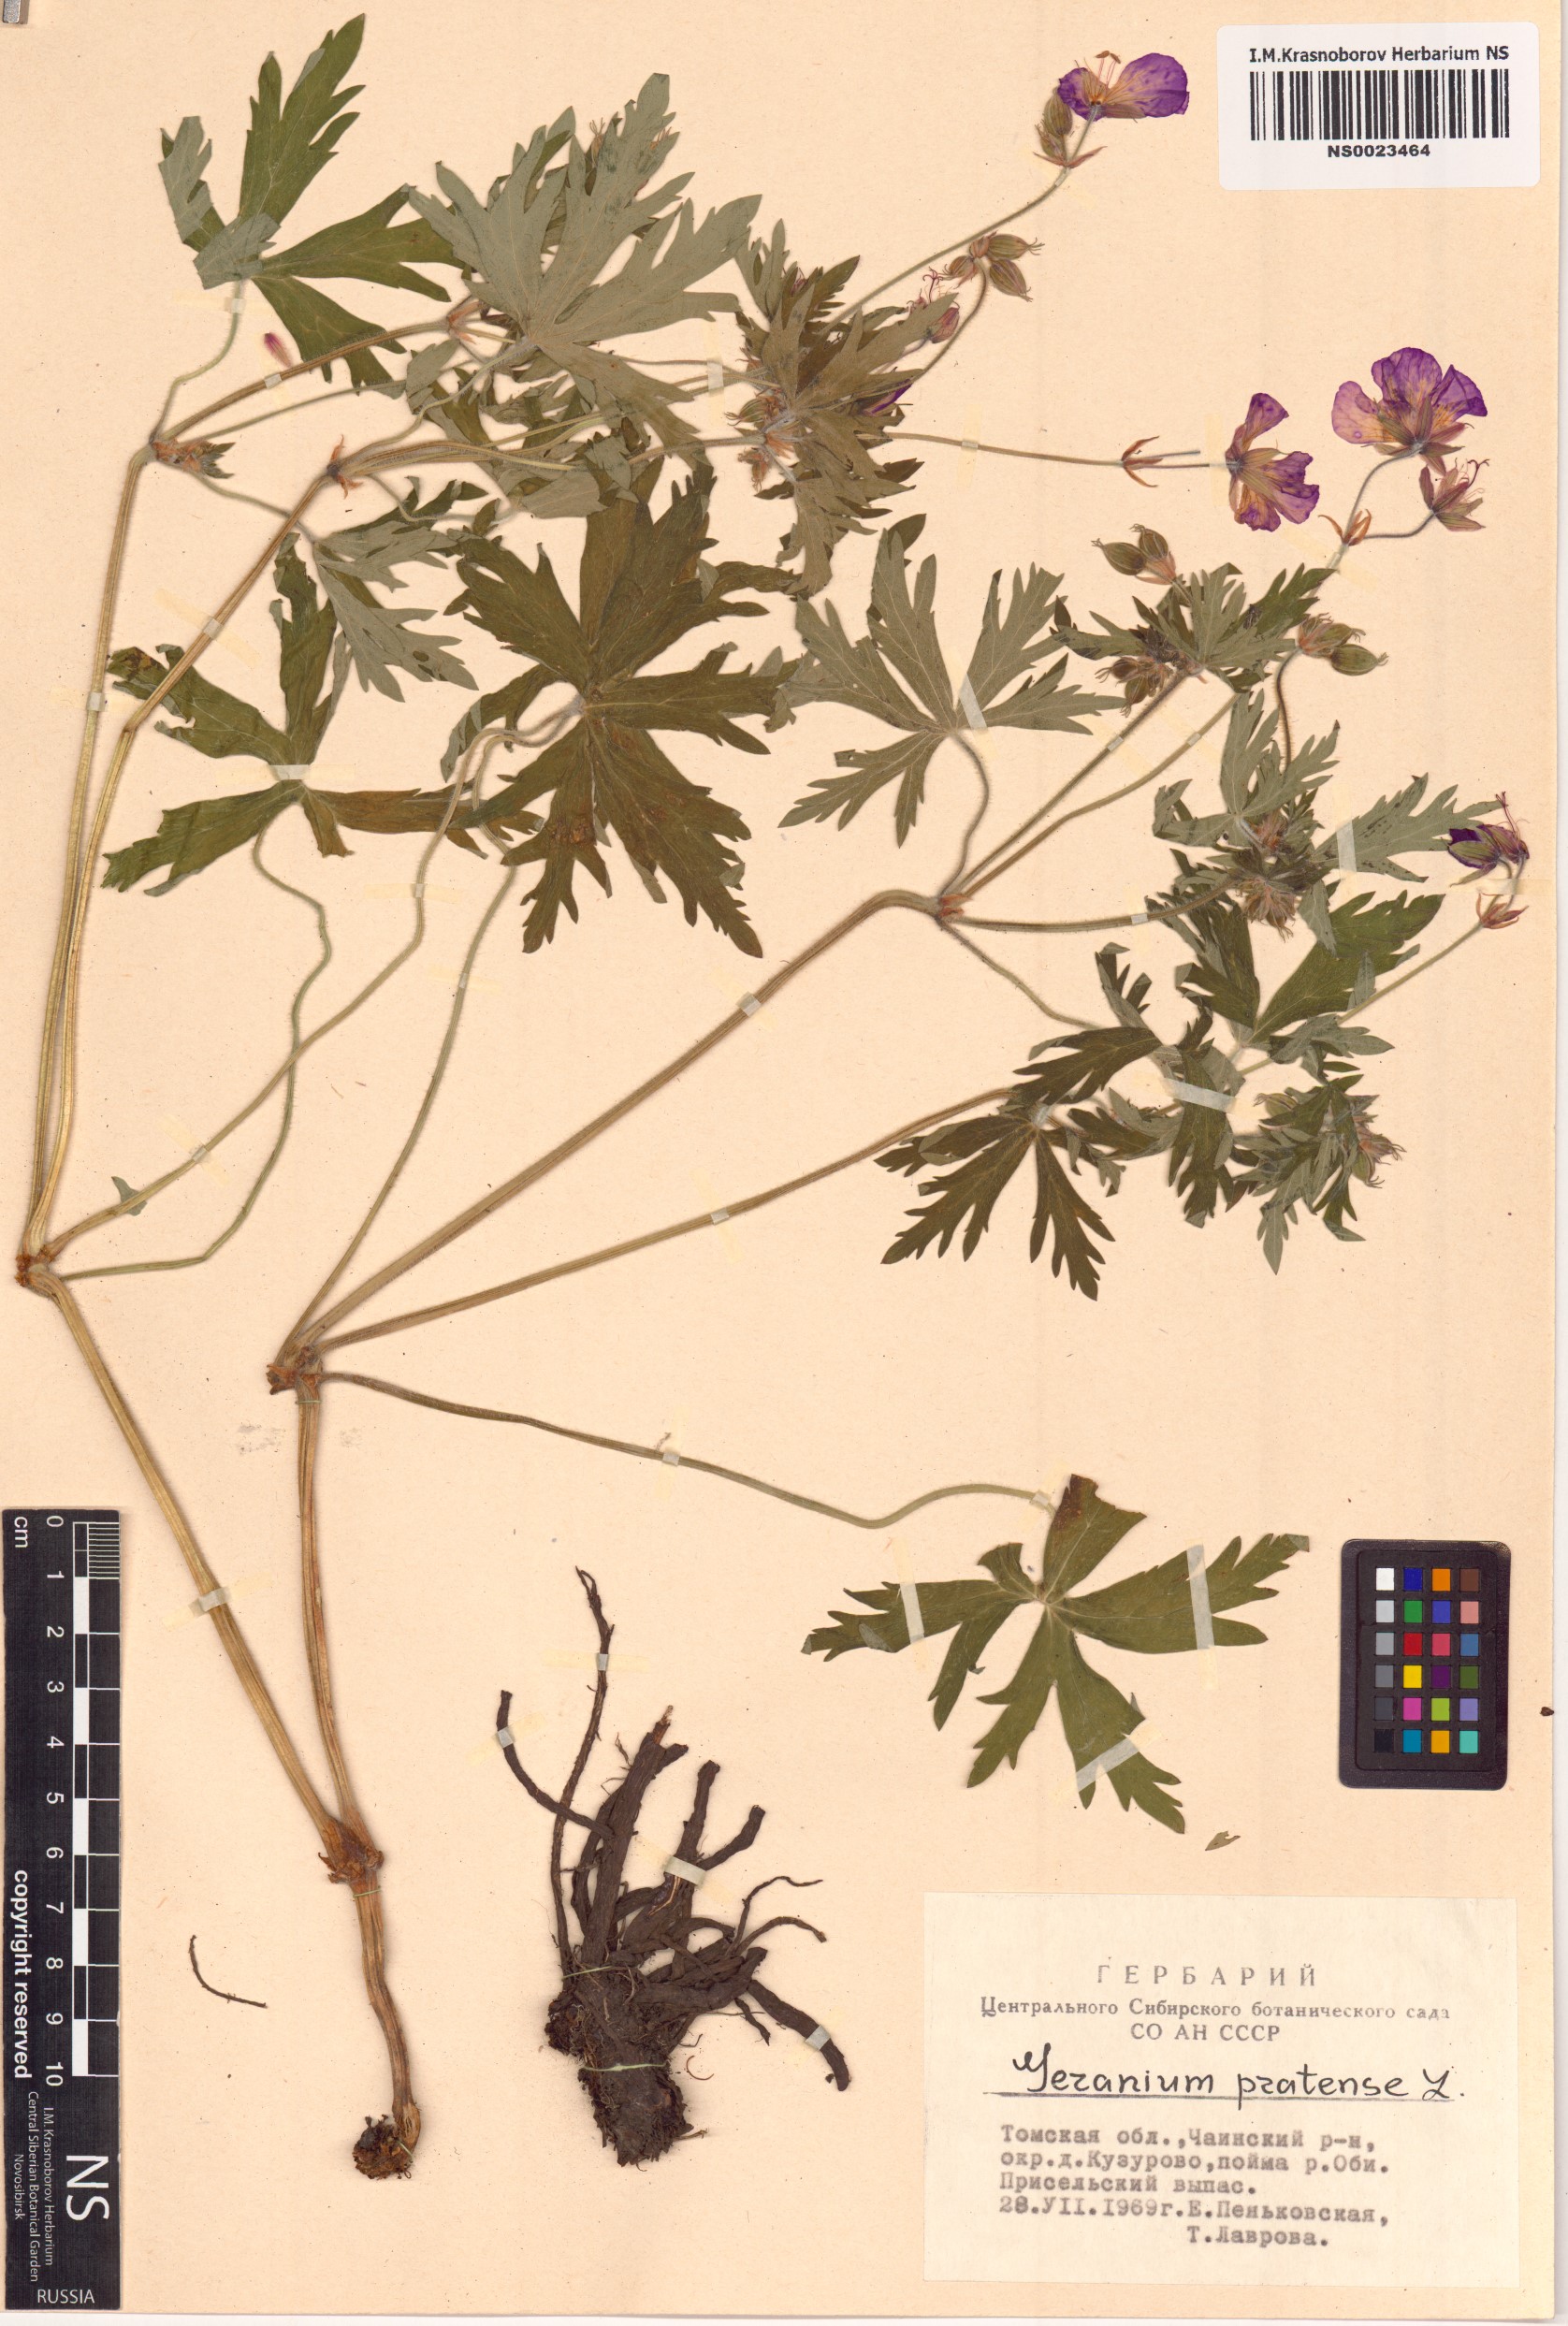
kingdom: Plantae
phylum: Tracheophyta
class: Magnoliopsida
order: Geraniales
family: Geraniaceae
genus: Geranium
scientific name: Geranium pratense
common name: Meadow crane's-bill
